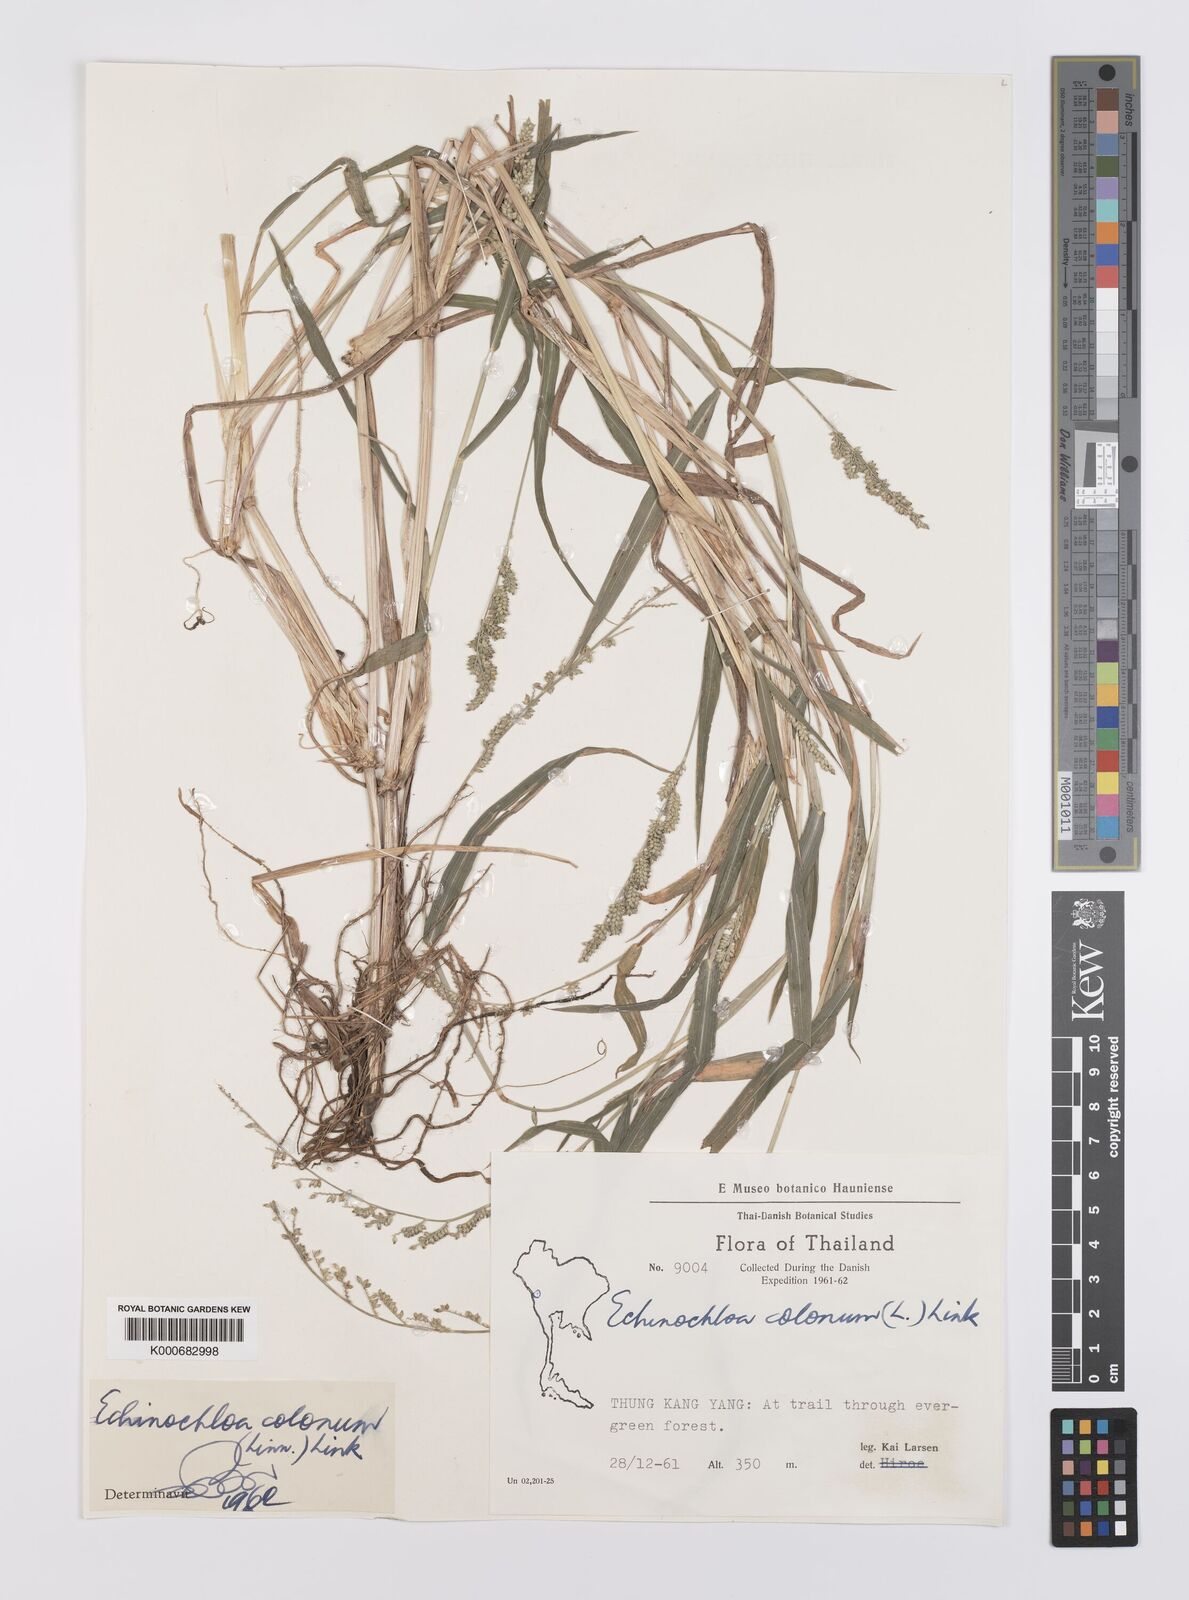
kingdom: Plantae
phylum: Tracheophyta
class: Liliopsida
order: Poales
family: Poaceae
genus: Echinochloa
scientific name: Echinochloa colonum
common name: Jungle rice
